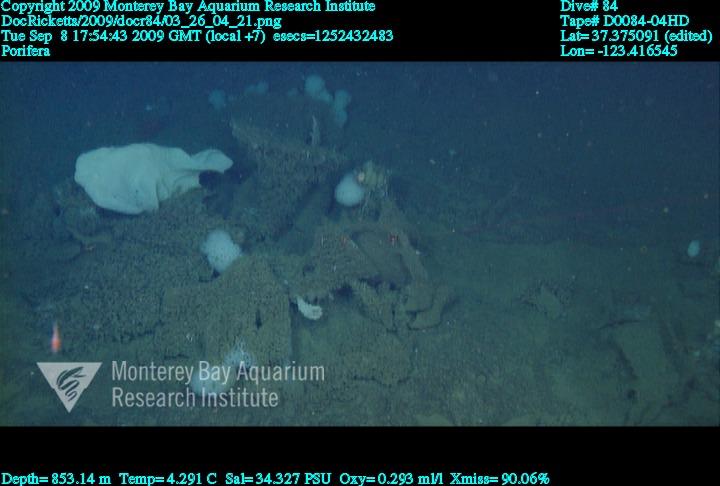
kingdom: Animalia
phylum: Porifera
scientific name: Porifera
